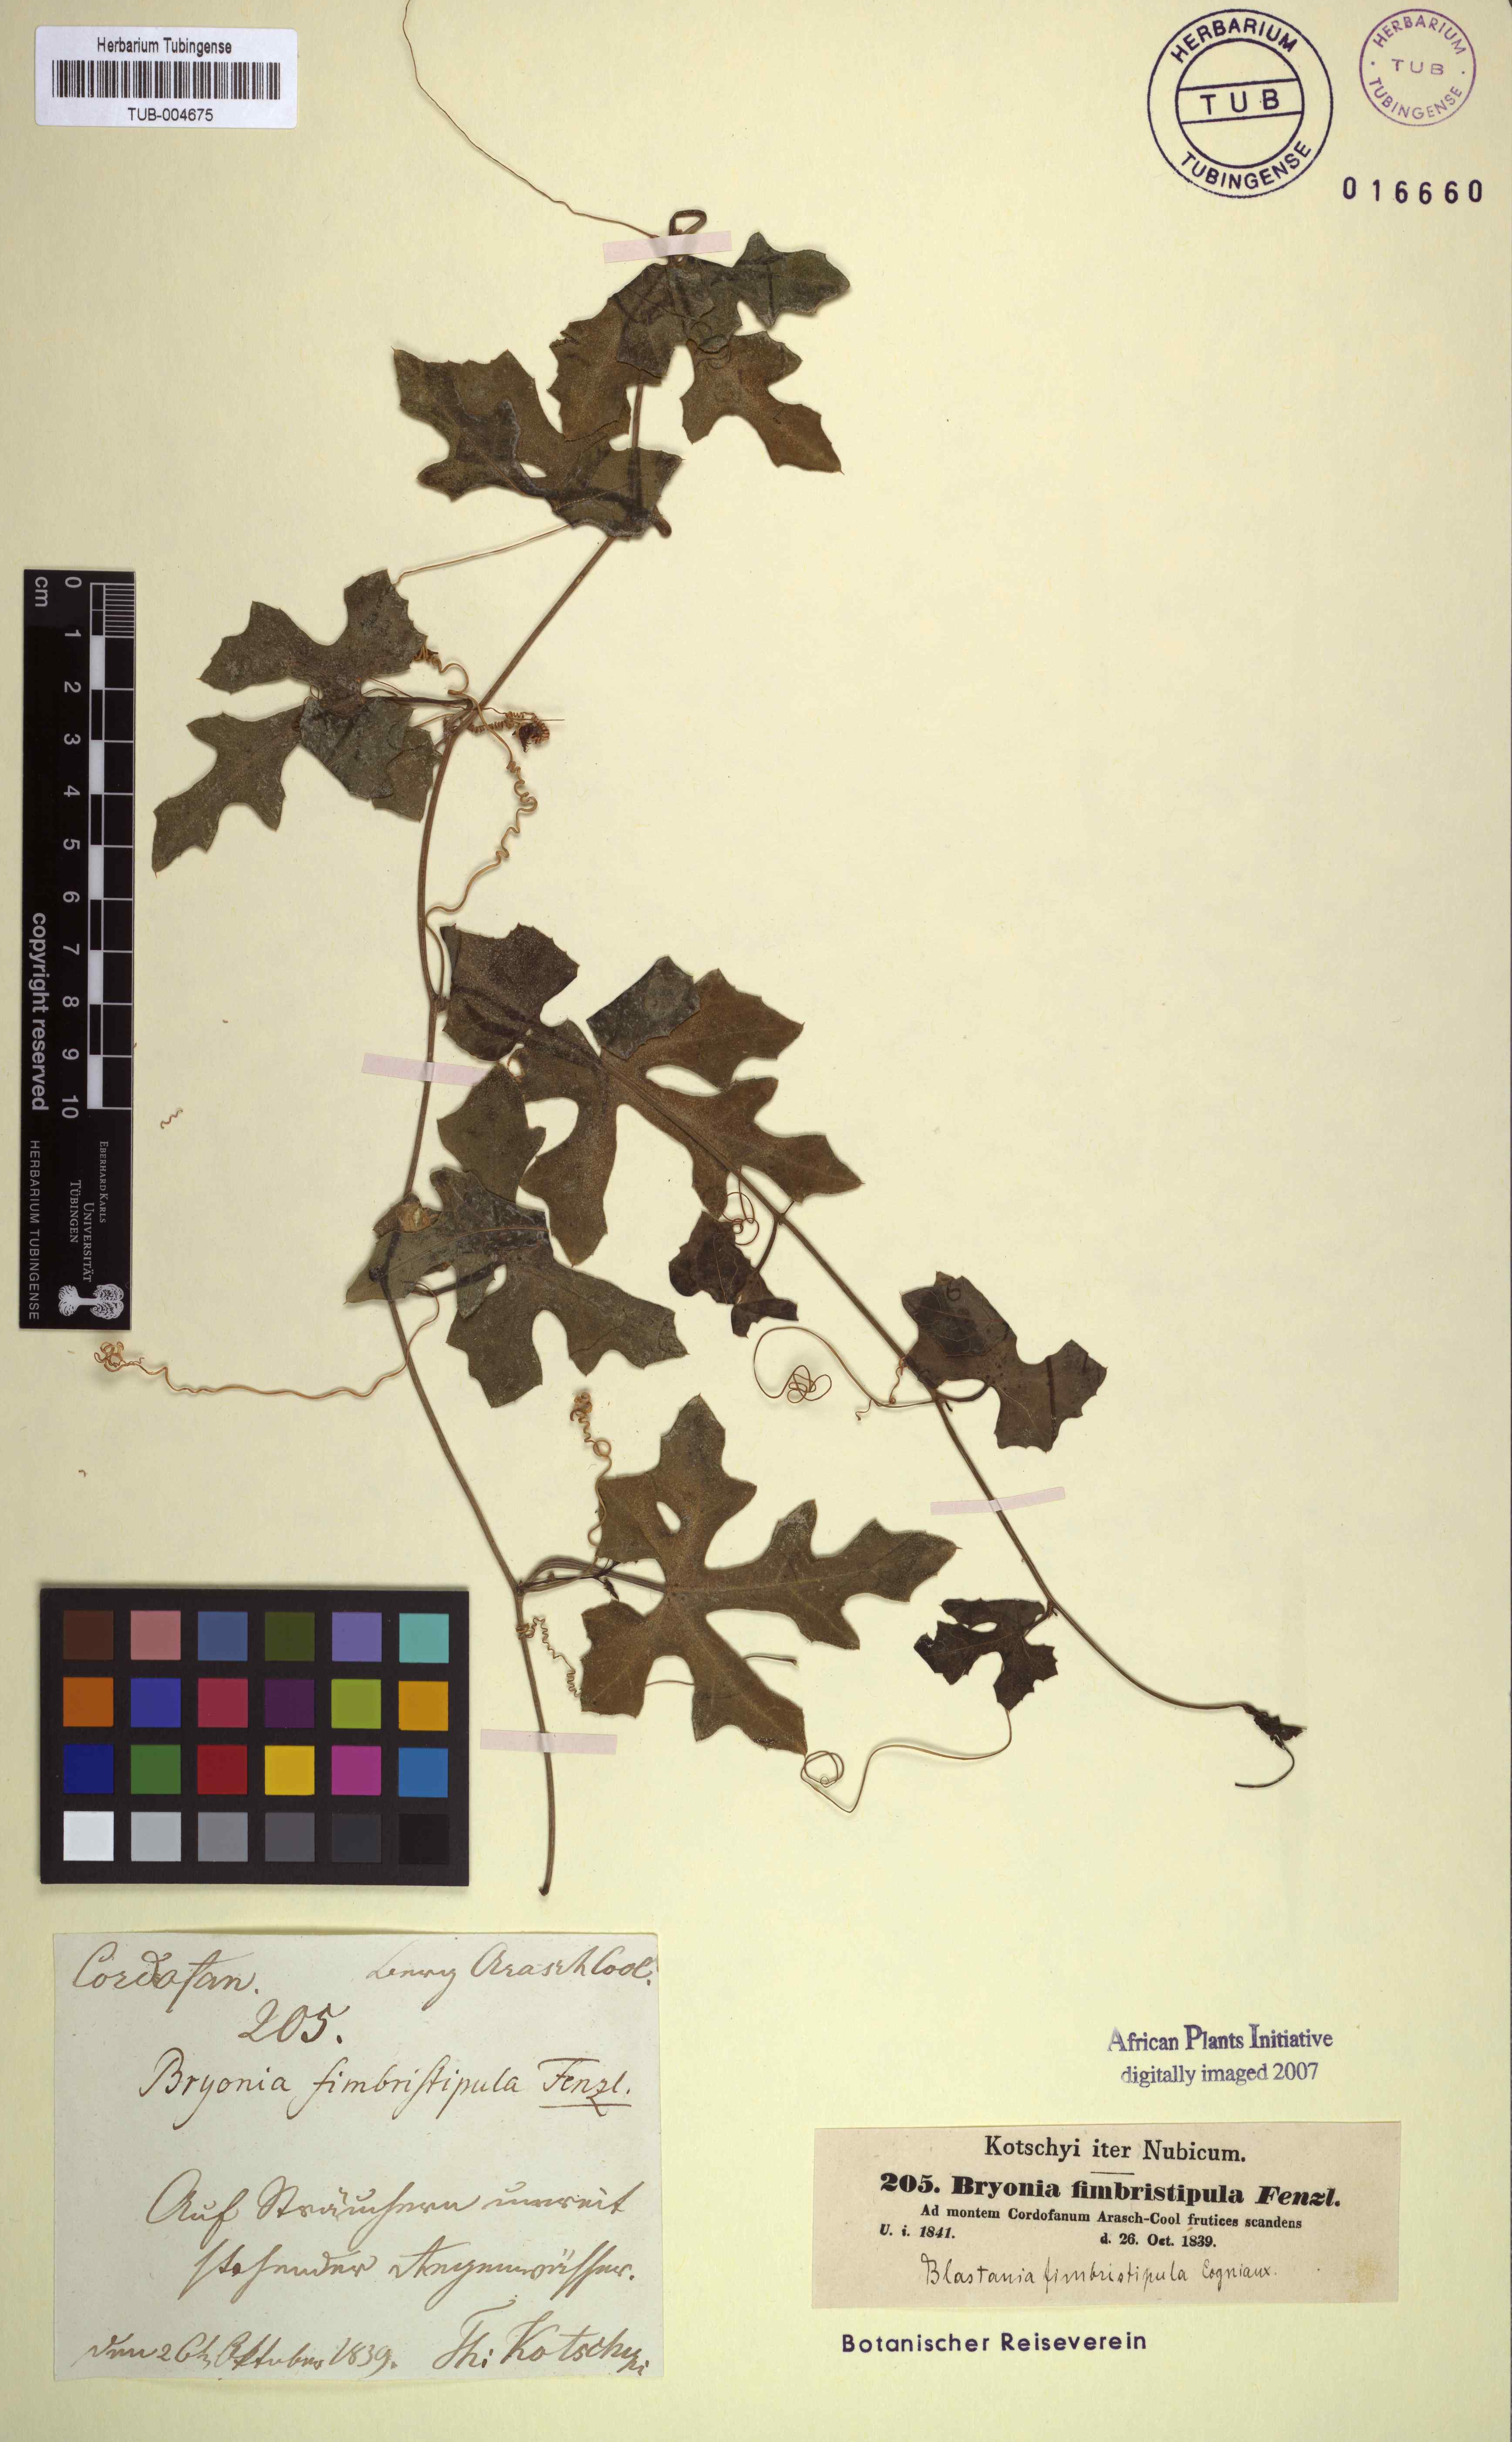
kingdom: Plantae
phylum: Tracheophyta
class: Magnoliopsida
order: Cucurbitales
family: Cucurbitaceae
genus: Blastania
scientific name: Blastania cerasiformis
